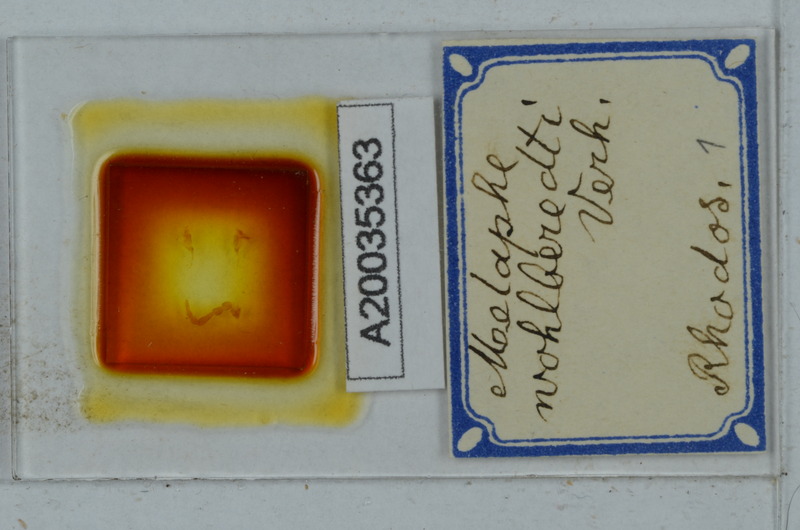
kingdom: Animalia
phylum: Arthropoda
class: Diplopoda
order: Polydesmida
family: Xystodesmidae
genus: Melaphe
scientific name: Melaphe vestita
